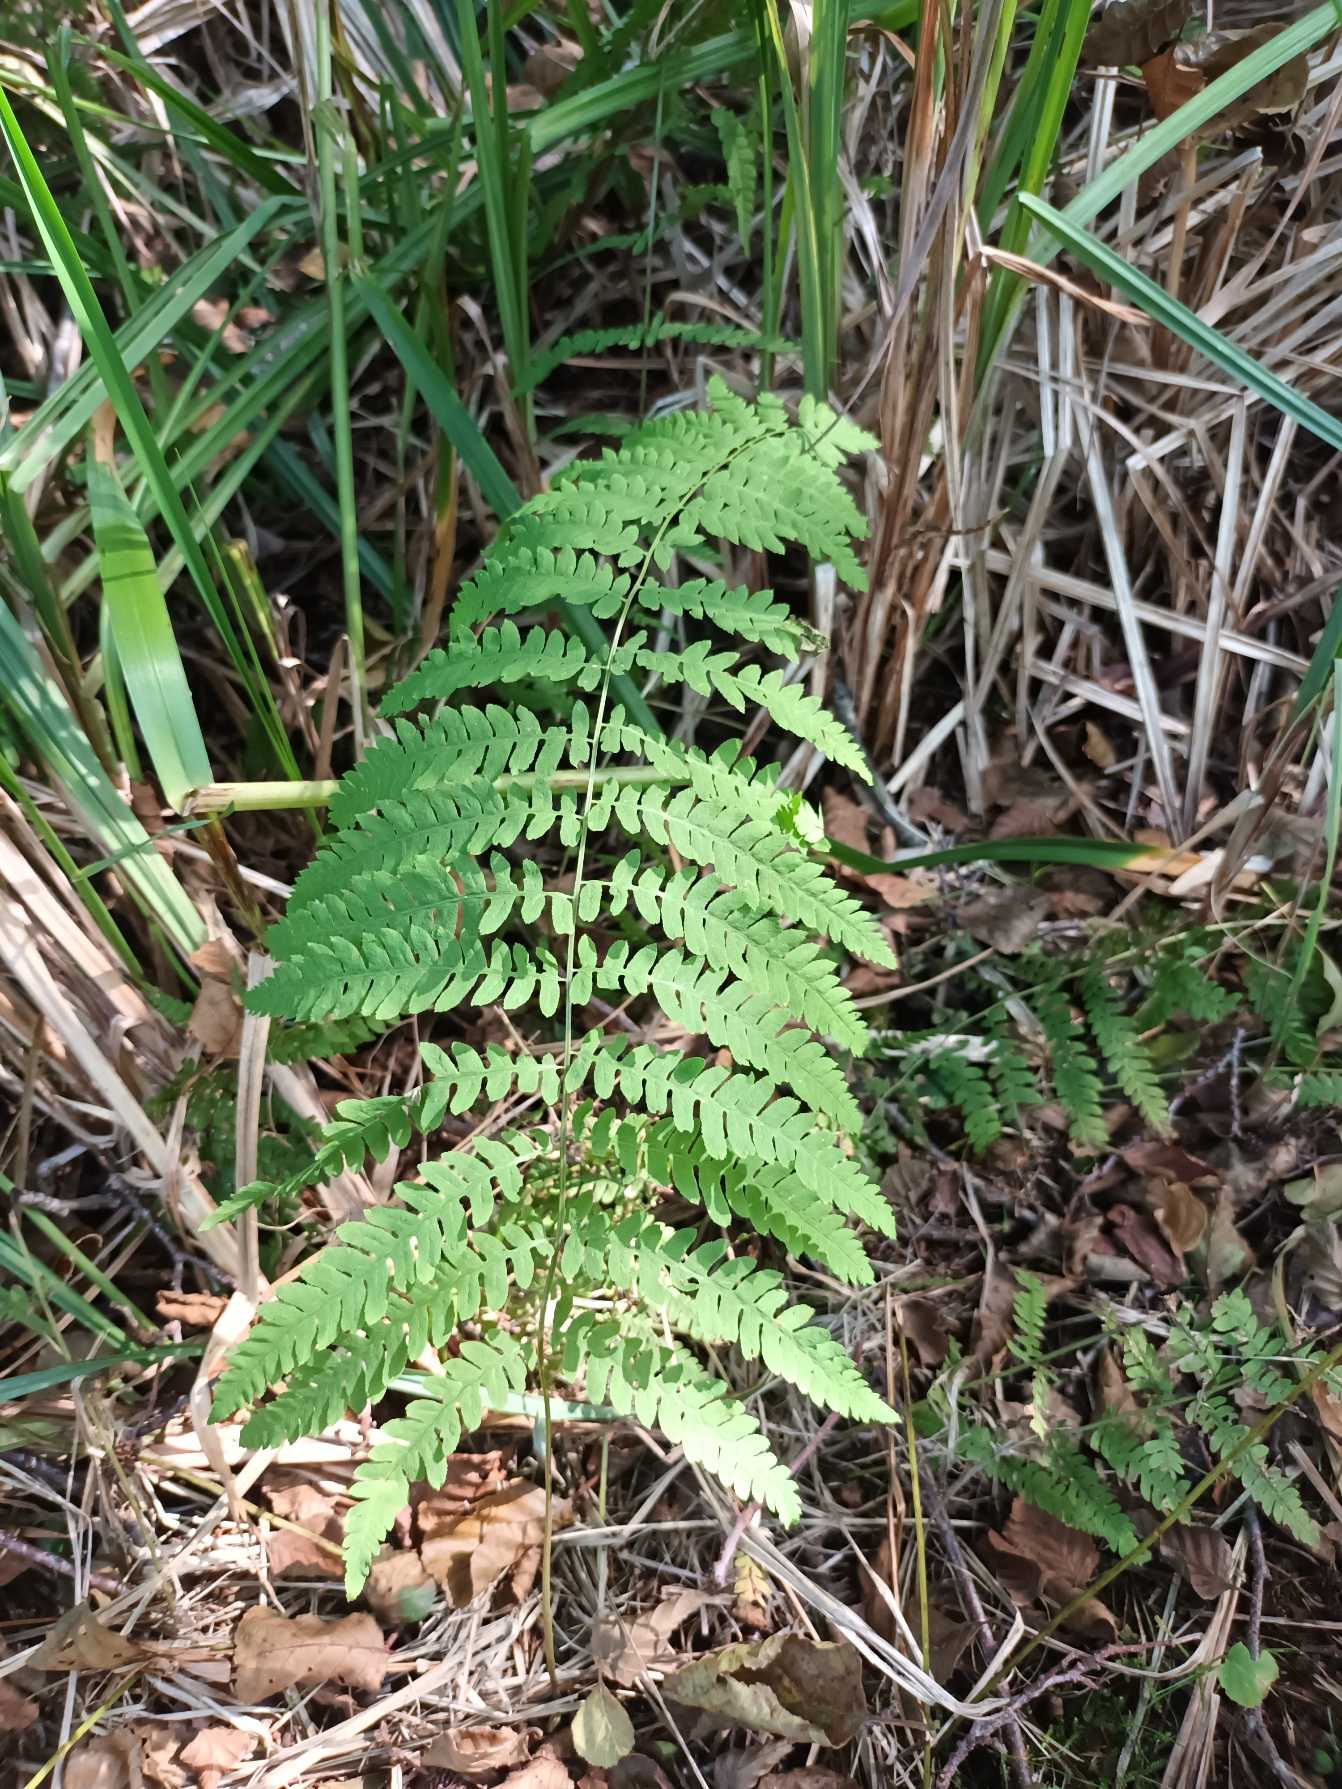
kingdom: Plantae
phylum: Tracheophyta
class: Polypodiopsida
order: Polypodiales
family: Thelypteridaceae
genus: Thelypteris
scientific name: Thelypteris palustris
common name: Kærmangeløv
